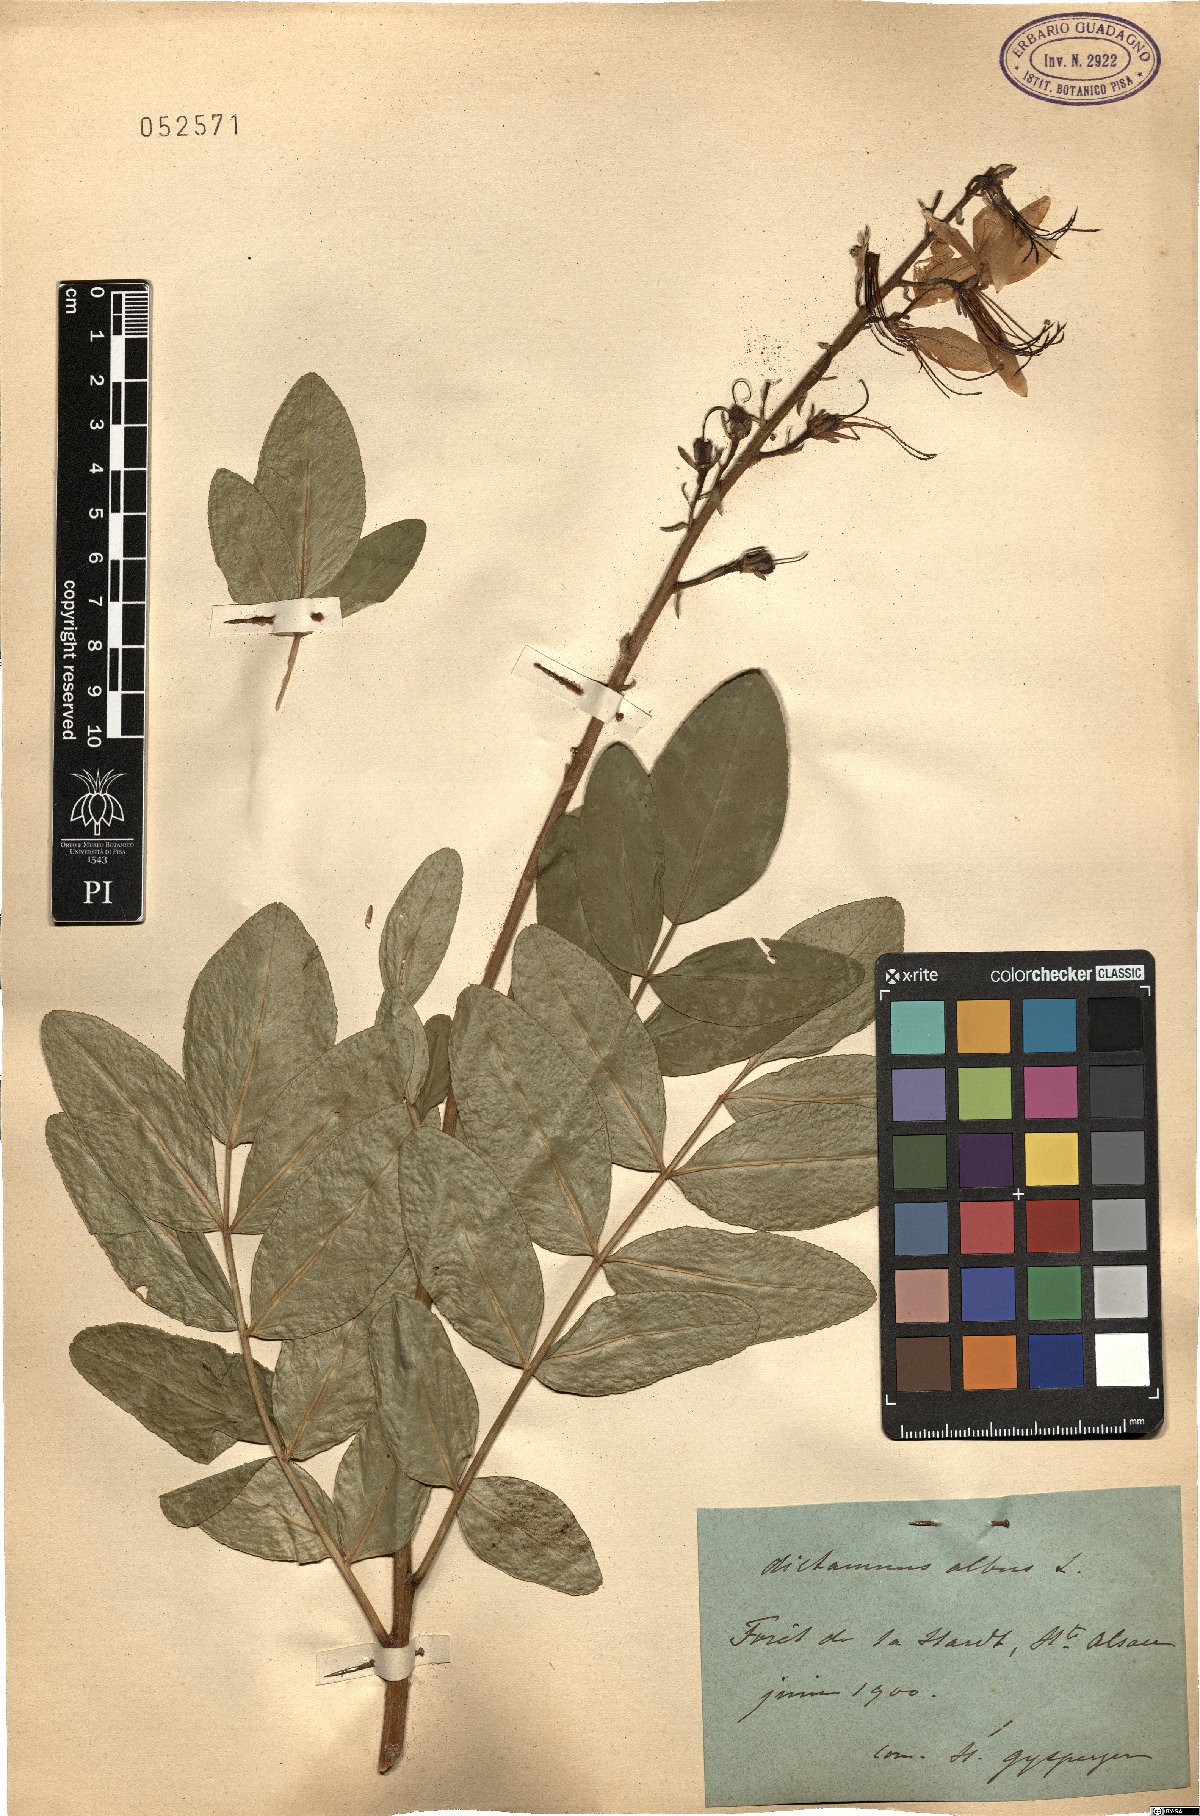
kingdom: Plantae
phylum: Tracheophyta
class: Magnoliopsida
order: Sapindales
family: Rutaceae
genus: Dictamnus
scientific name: Dictamnus albus
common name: Gasplant
